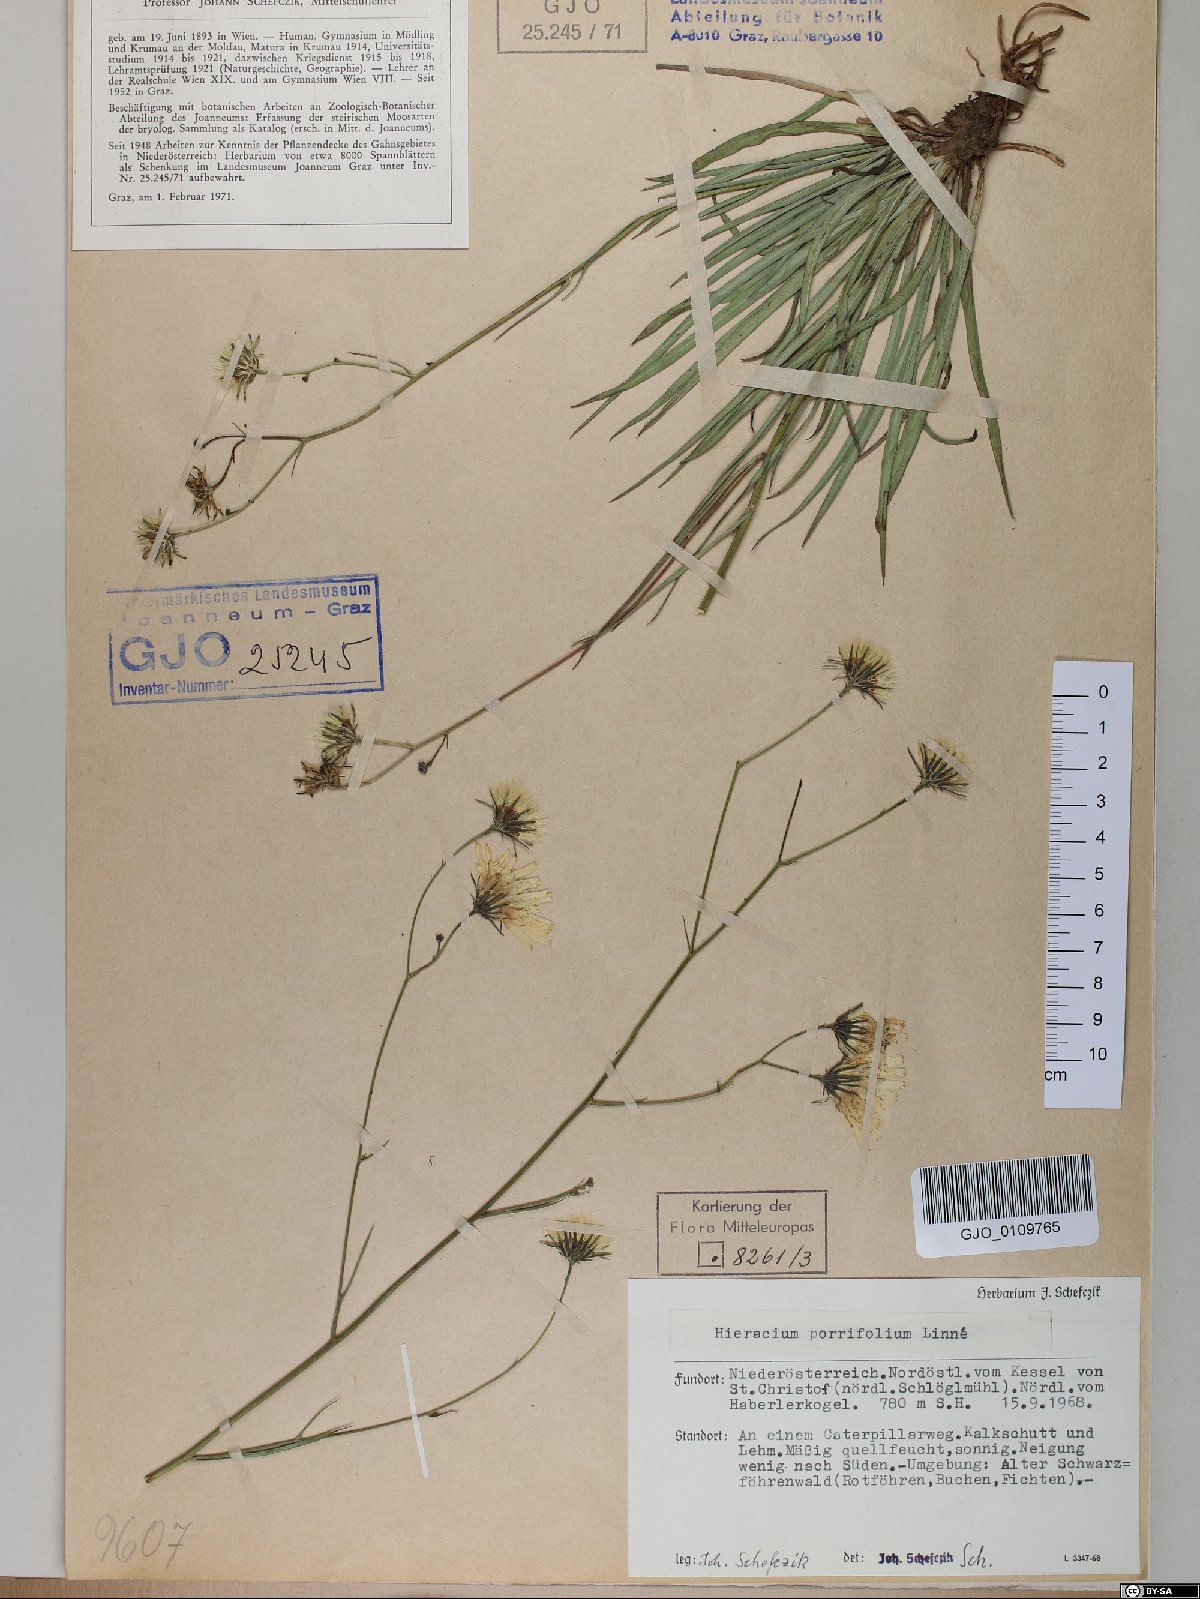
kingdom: Plantae
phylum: Tracheophyta
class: Magnoliopsida
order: Asterales
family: Asteraceae
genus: Hieracium
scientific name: Hieracium porrifolium
